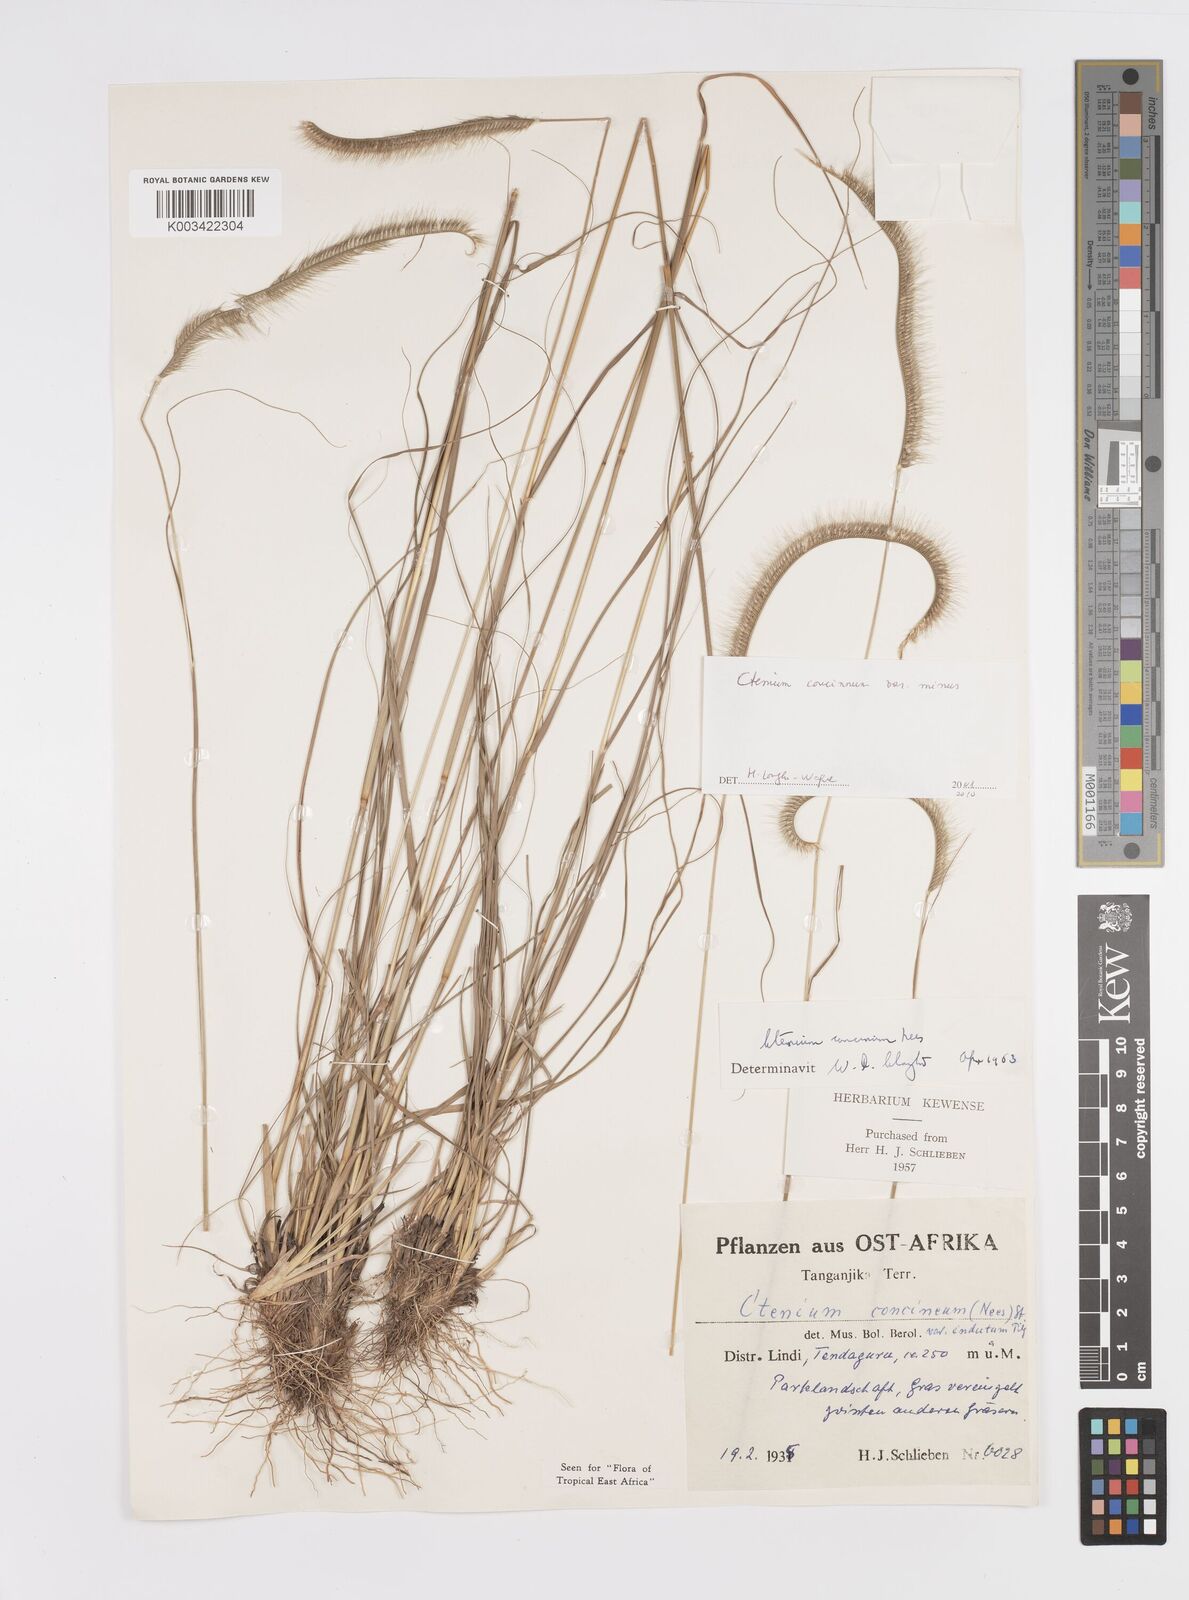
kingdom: Plantae
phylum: Tracheophyta
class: Liliopsida
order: Poales
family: Poaceae
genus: Ctenium
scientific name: Ctenium concinnum
